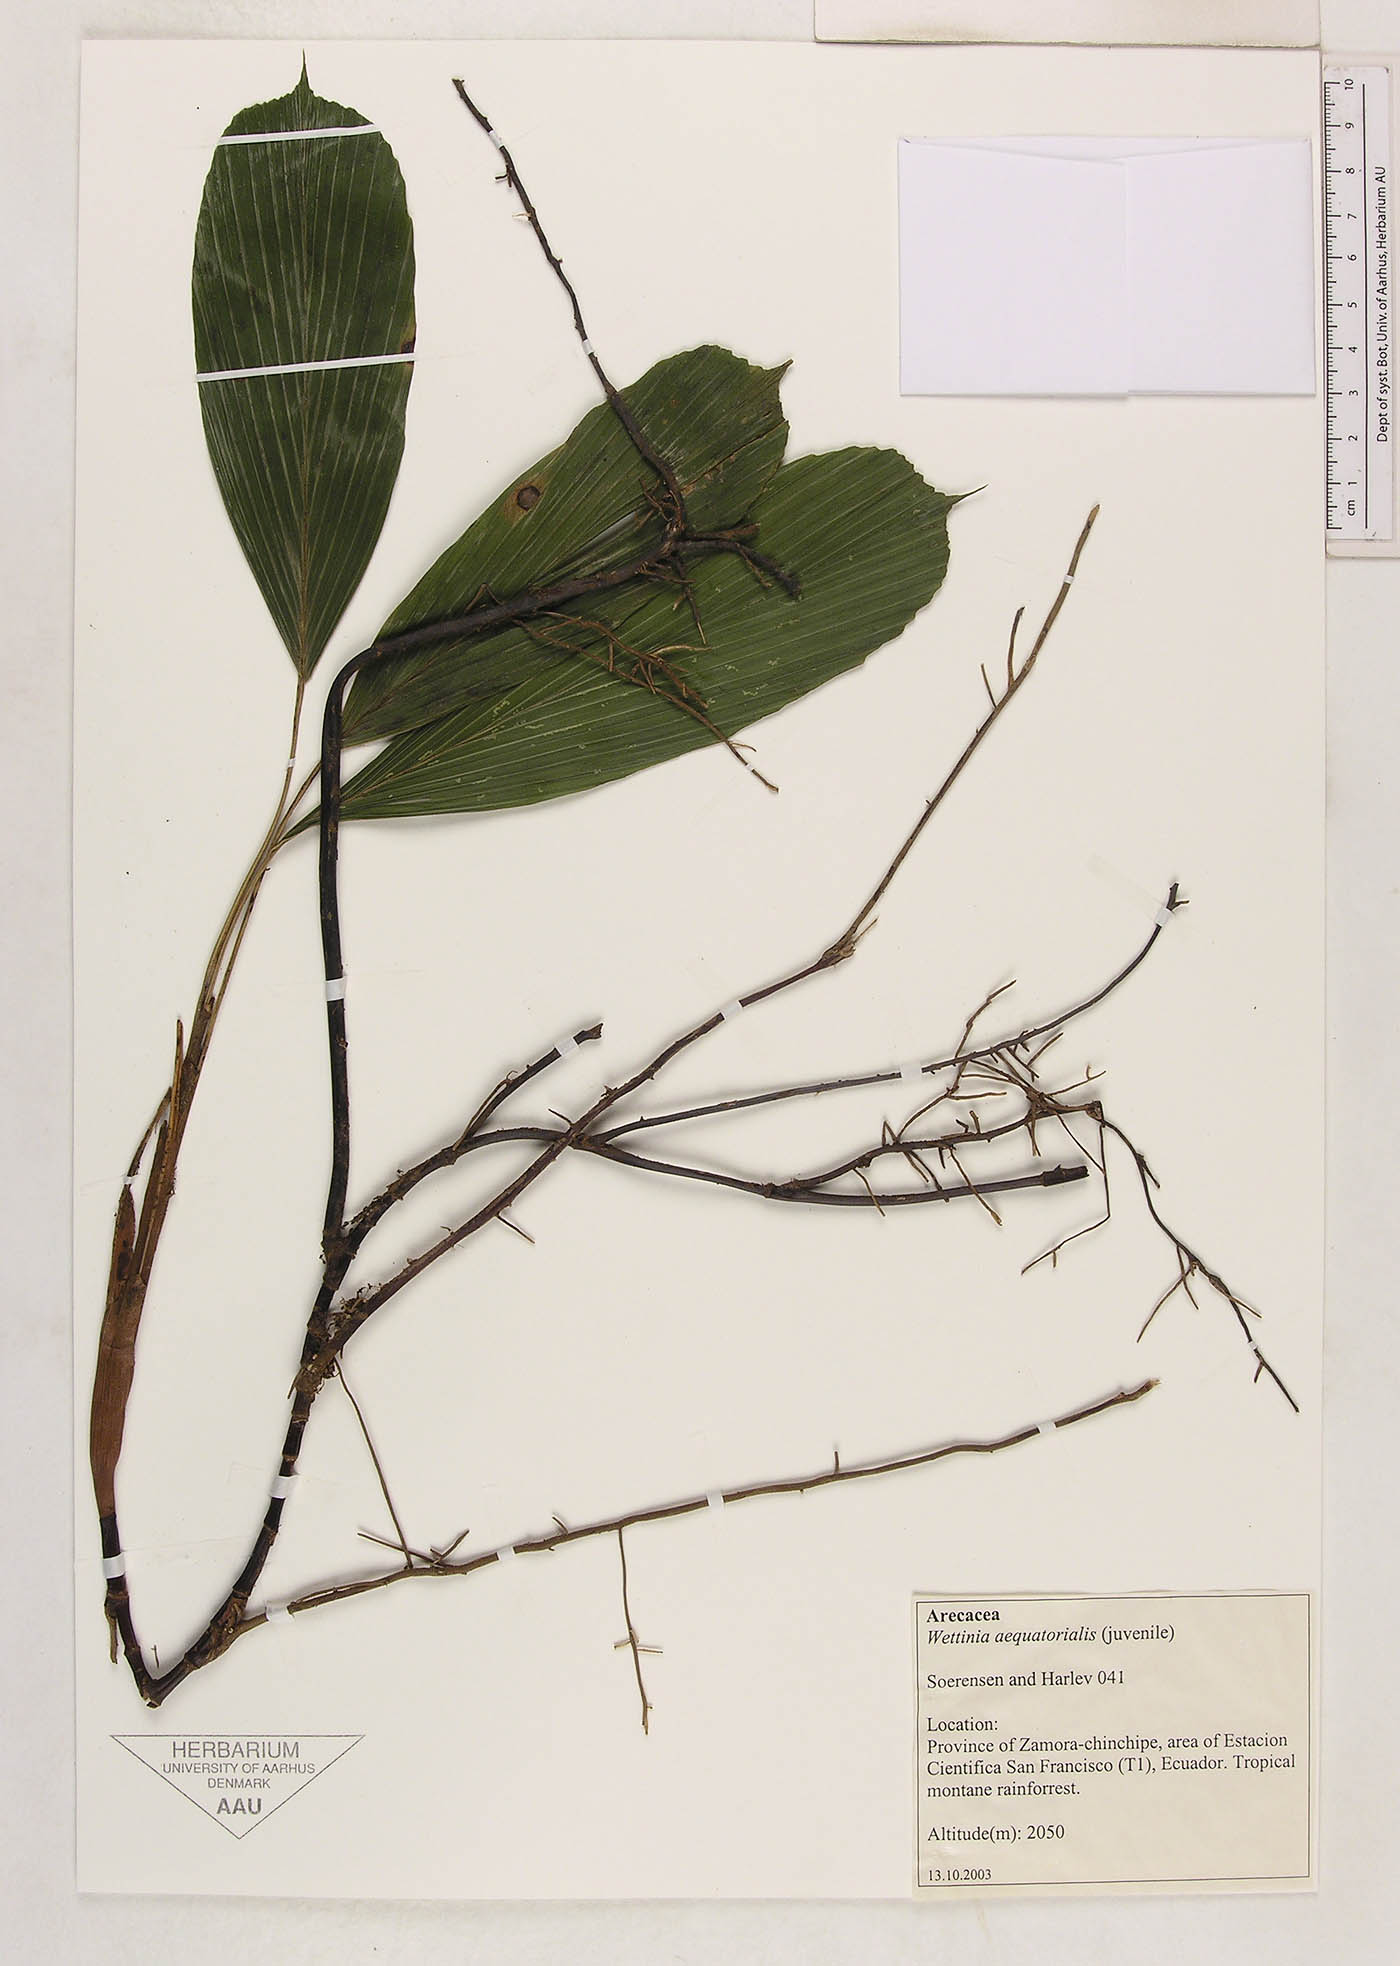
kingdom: Plantae
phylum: Tracheophyta
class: Liliopsida
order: Arecales
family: Arecaceae
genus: Wettinia
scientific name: Wettinia aequatorialis
